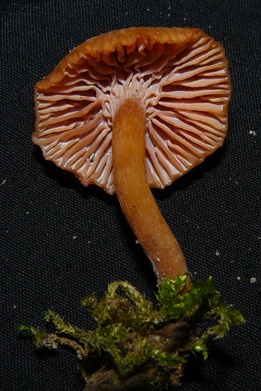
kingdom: Fungi
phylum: Basidiomycota
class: Agaricomycetes
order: Agaricales
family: Hydnangiaceae
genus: Laccaria
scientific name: Laccaria proxima
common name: stor ametysthat
